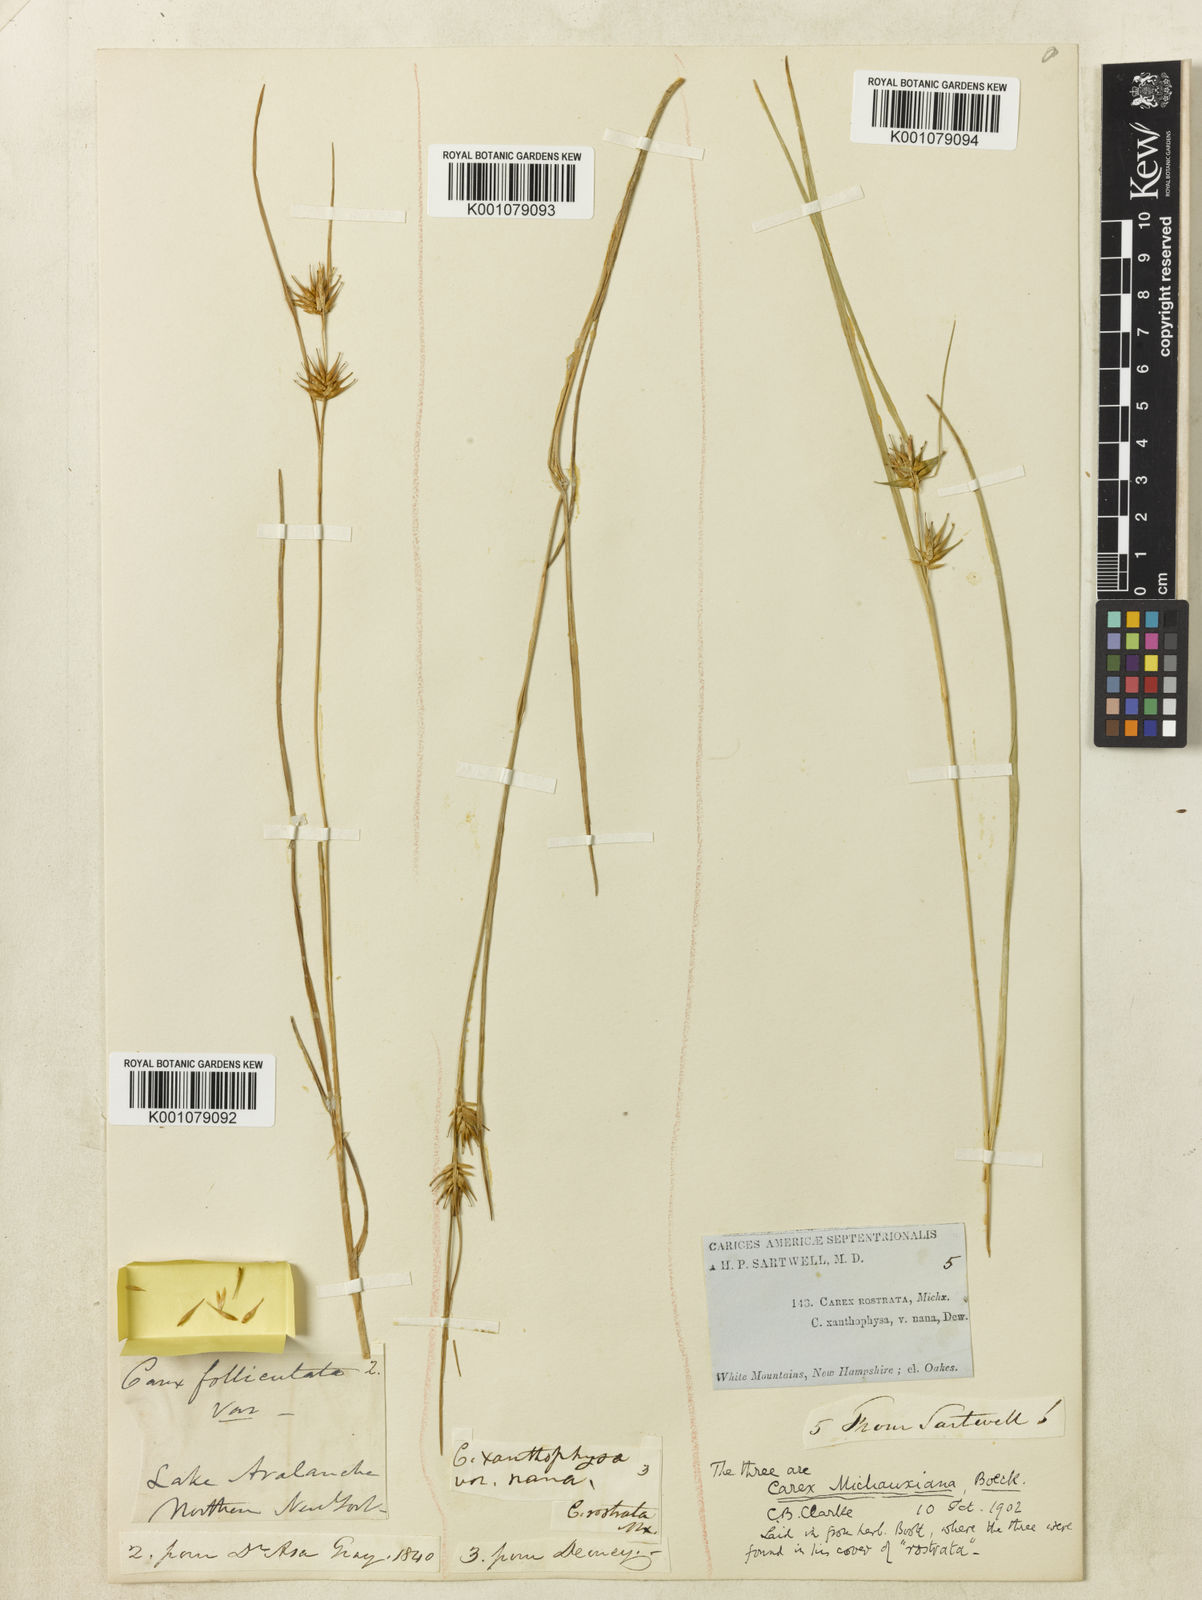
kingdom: Plantae
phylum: Tracheophyta
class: Liliopsida
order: Poales
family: Cyperaceae
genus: Carex
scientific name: Carex michauxiana
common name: Michaux's sedge
